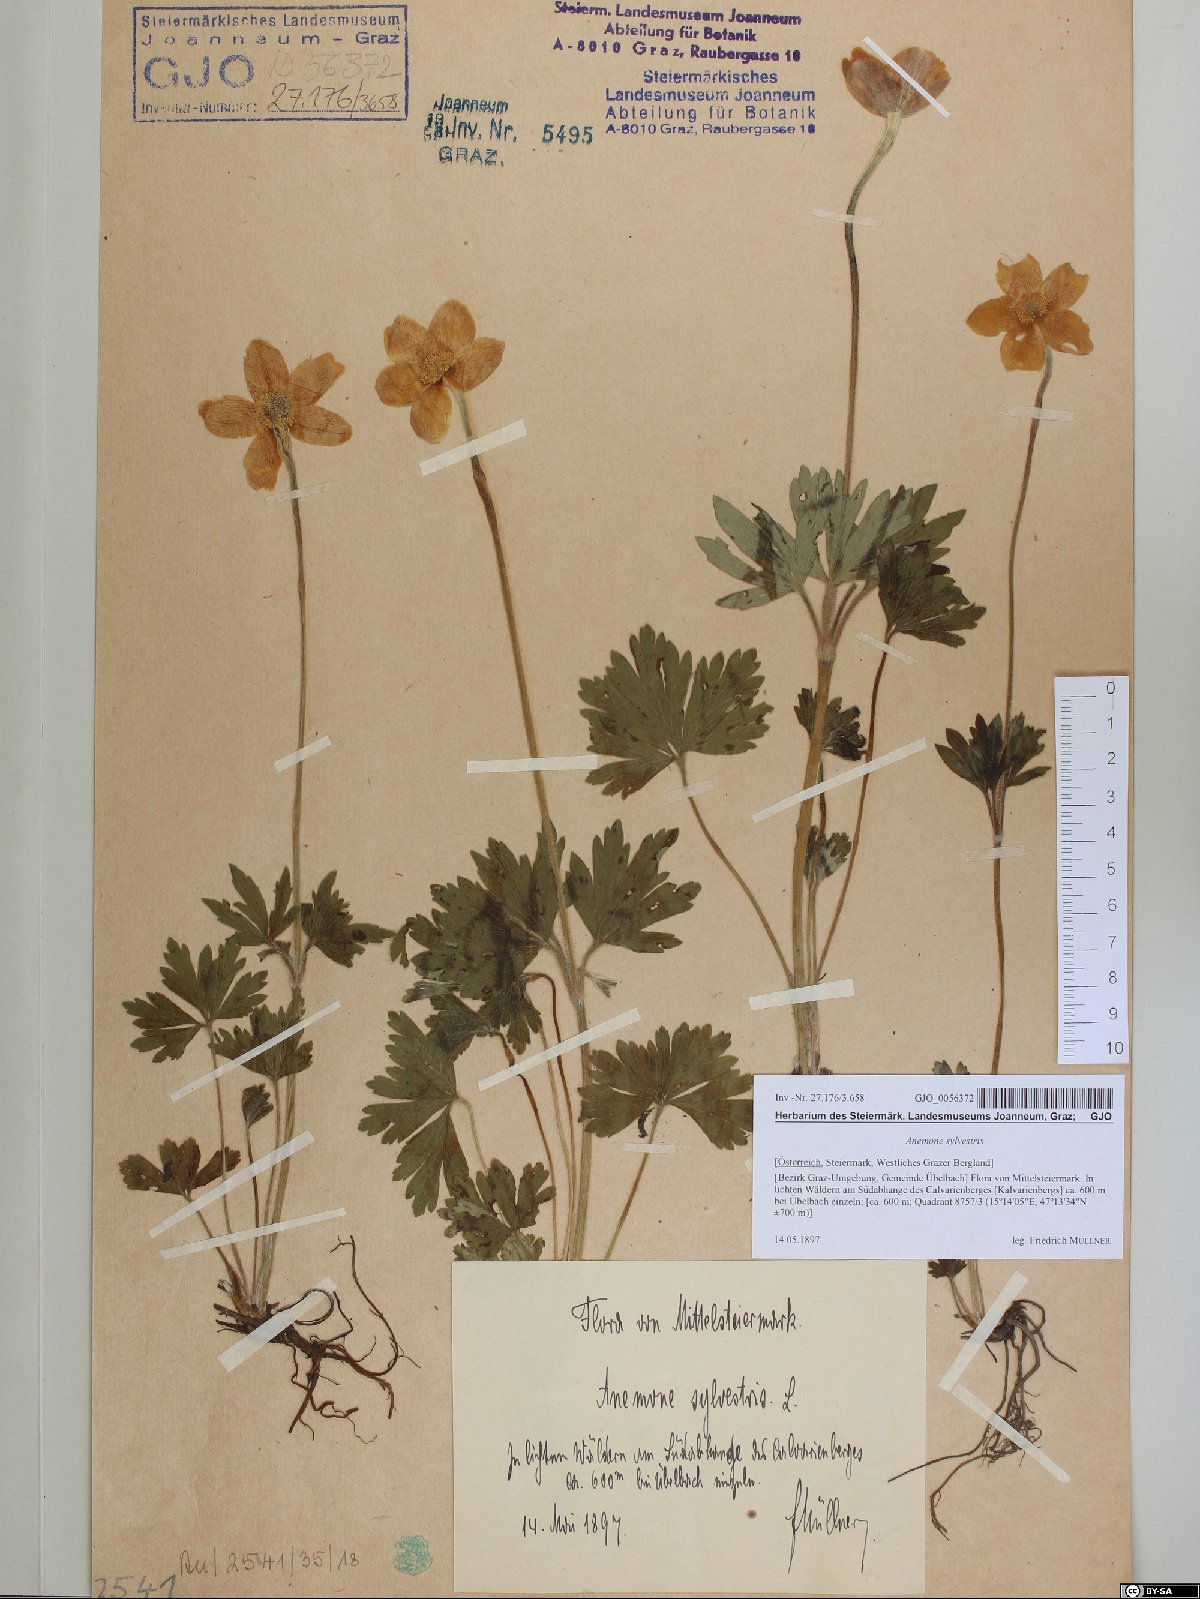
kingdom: Plantae
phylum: Tracheophyta
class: Magnoliopsida
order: Ranunculales
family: Ranunculaceae
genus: Anemone
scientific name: Anemone sylvestris
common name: Snowdrop anemone
